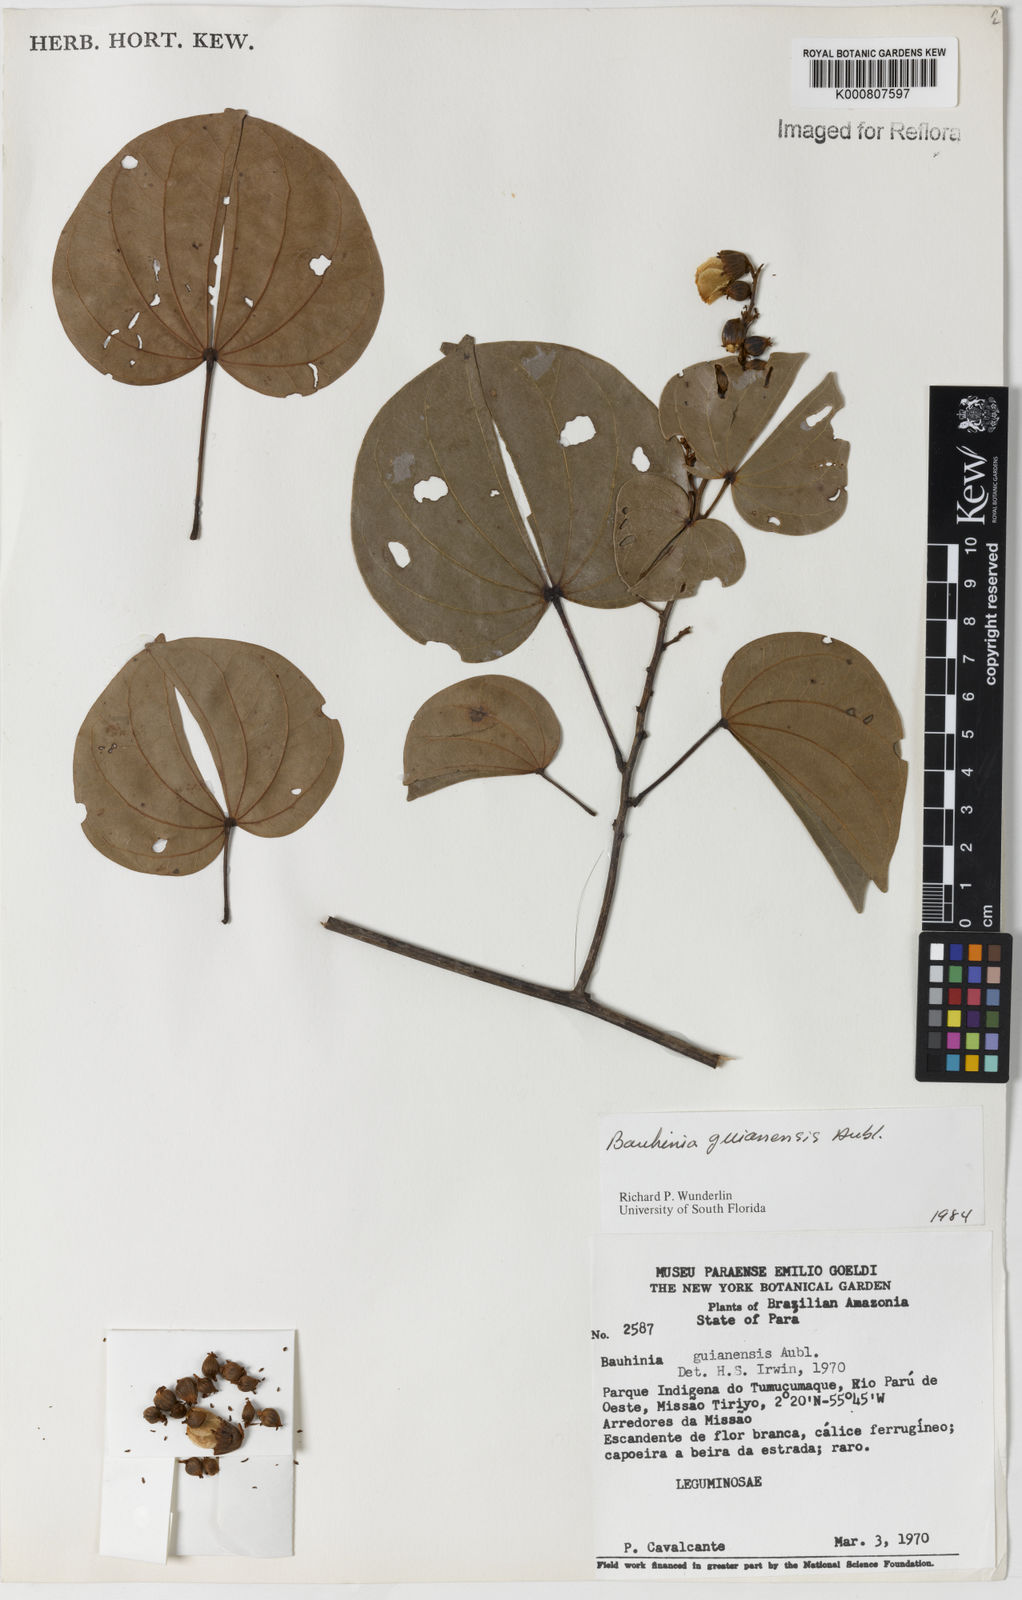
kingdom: Plantae
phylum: Tracheophyta
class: Magnoliopsida
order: Fabales
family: Fabaceae
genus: Schnella
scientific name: Schnella guianensis
